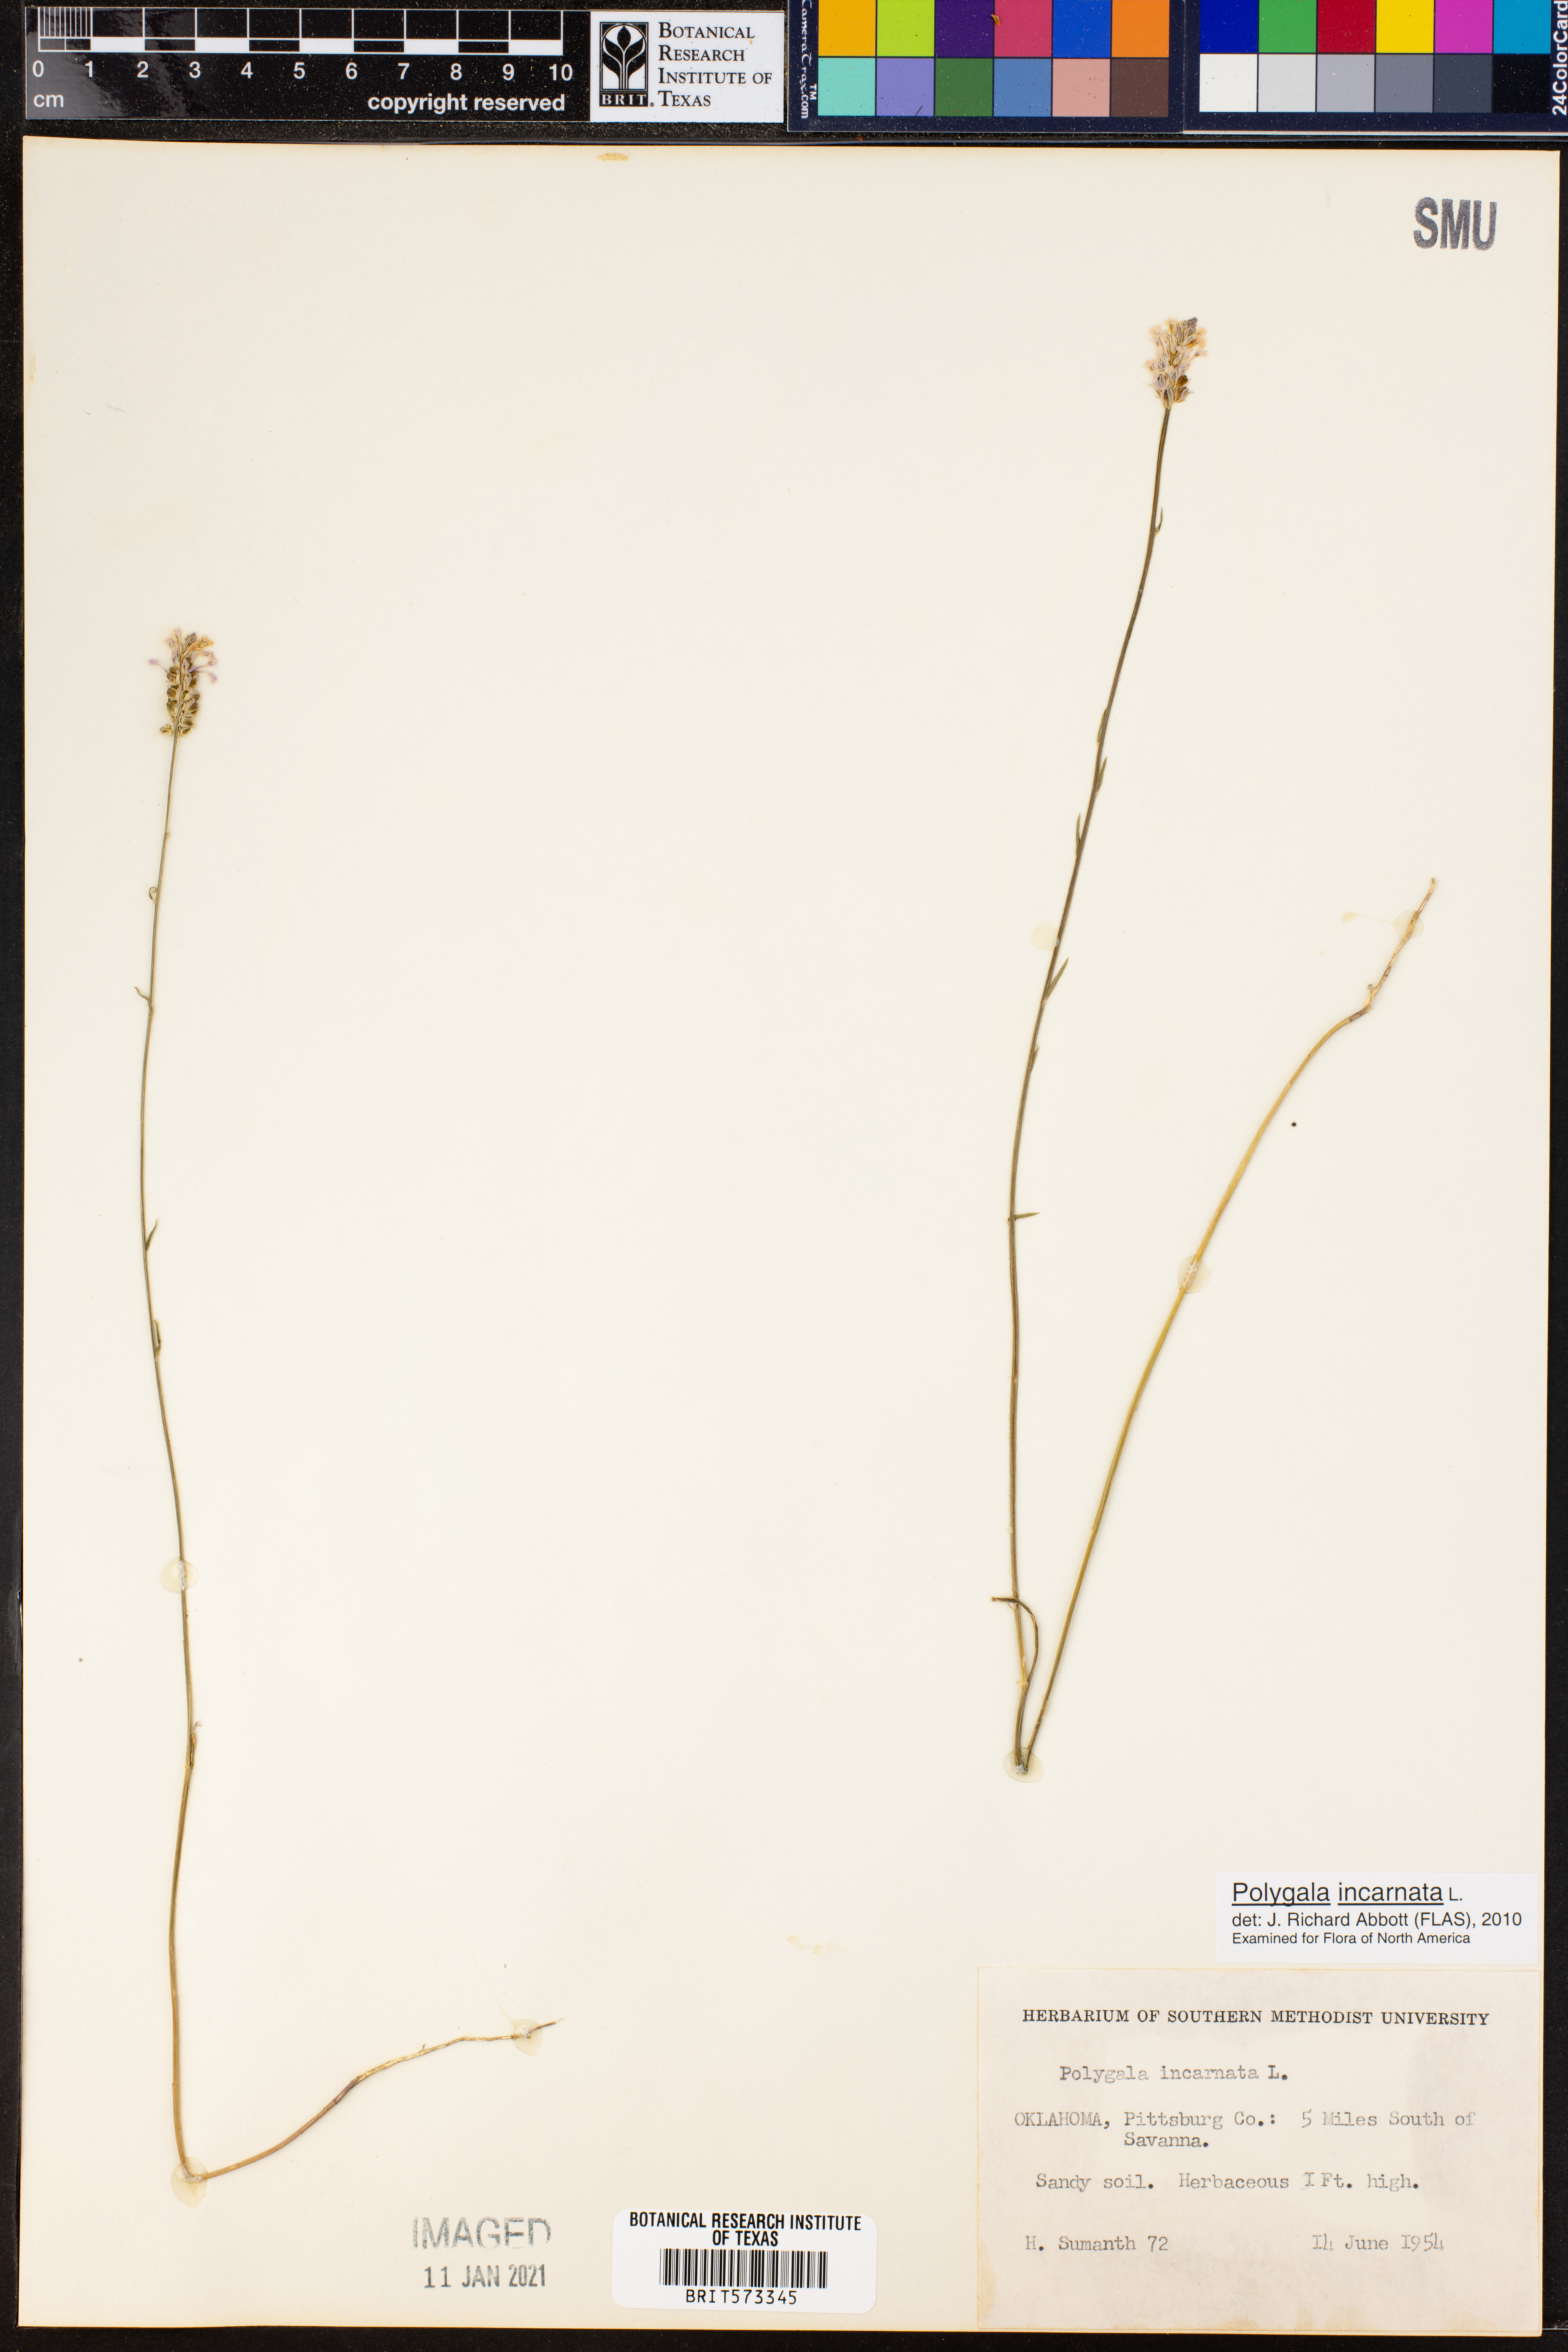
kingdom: Plantae
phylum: Tracheophyta
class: Magnoliopsida
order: Fabales
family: Polygalaceae
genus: Polygala
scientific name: Polygala incarnata
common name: Pink milkwort
